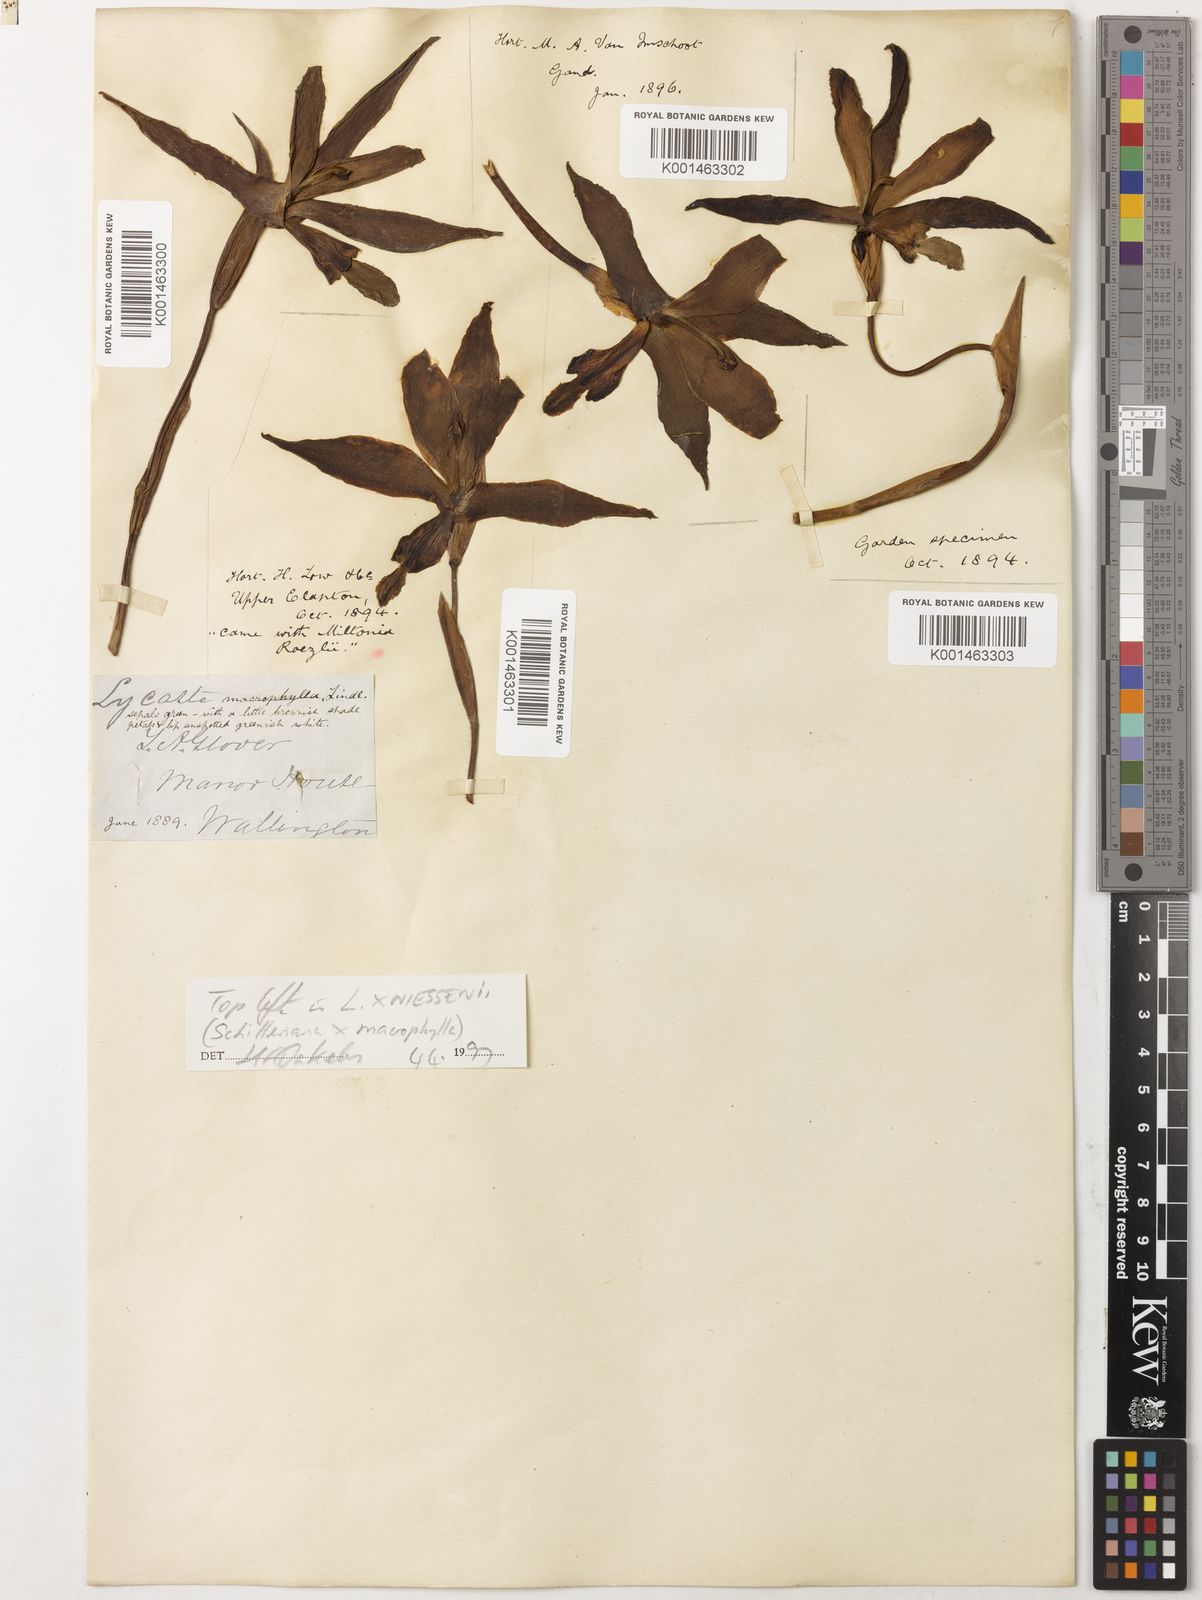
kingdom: Plantae
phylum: Tracheophyta
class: Liliopsida
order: Asparagales
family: Orchidaceae
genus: Lycaste
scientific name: Lycaste macrophylla
